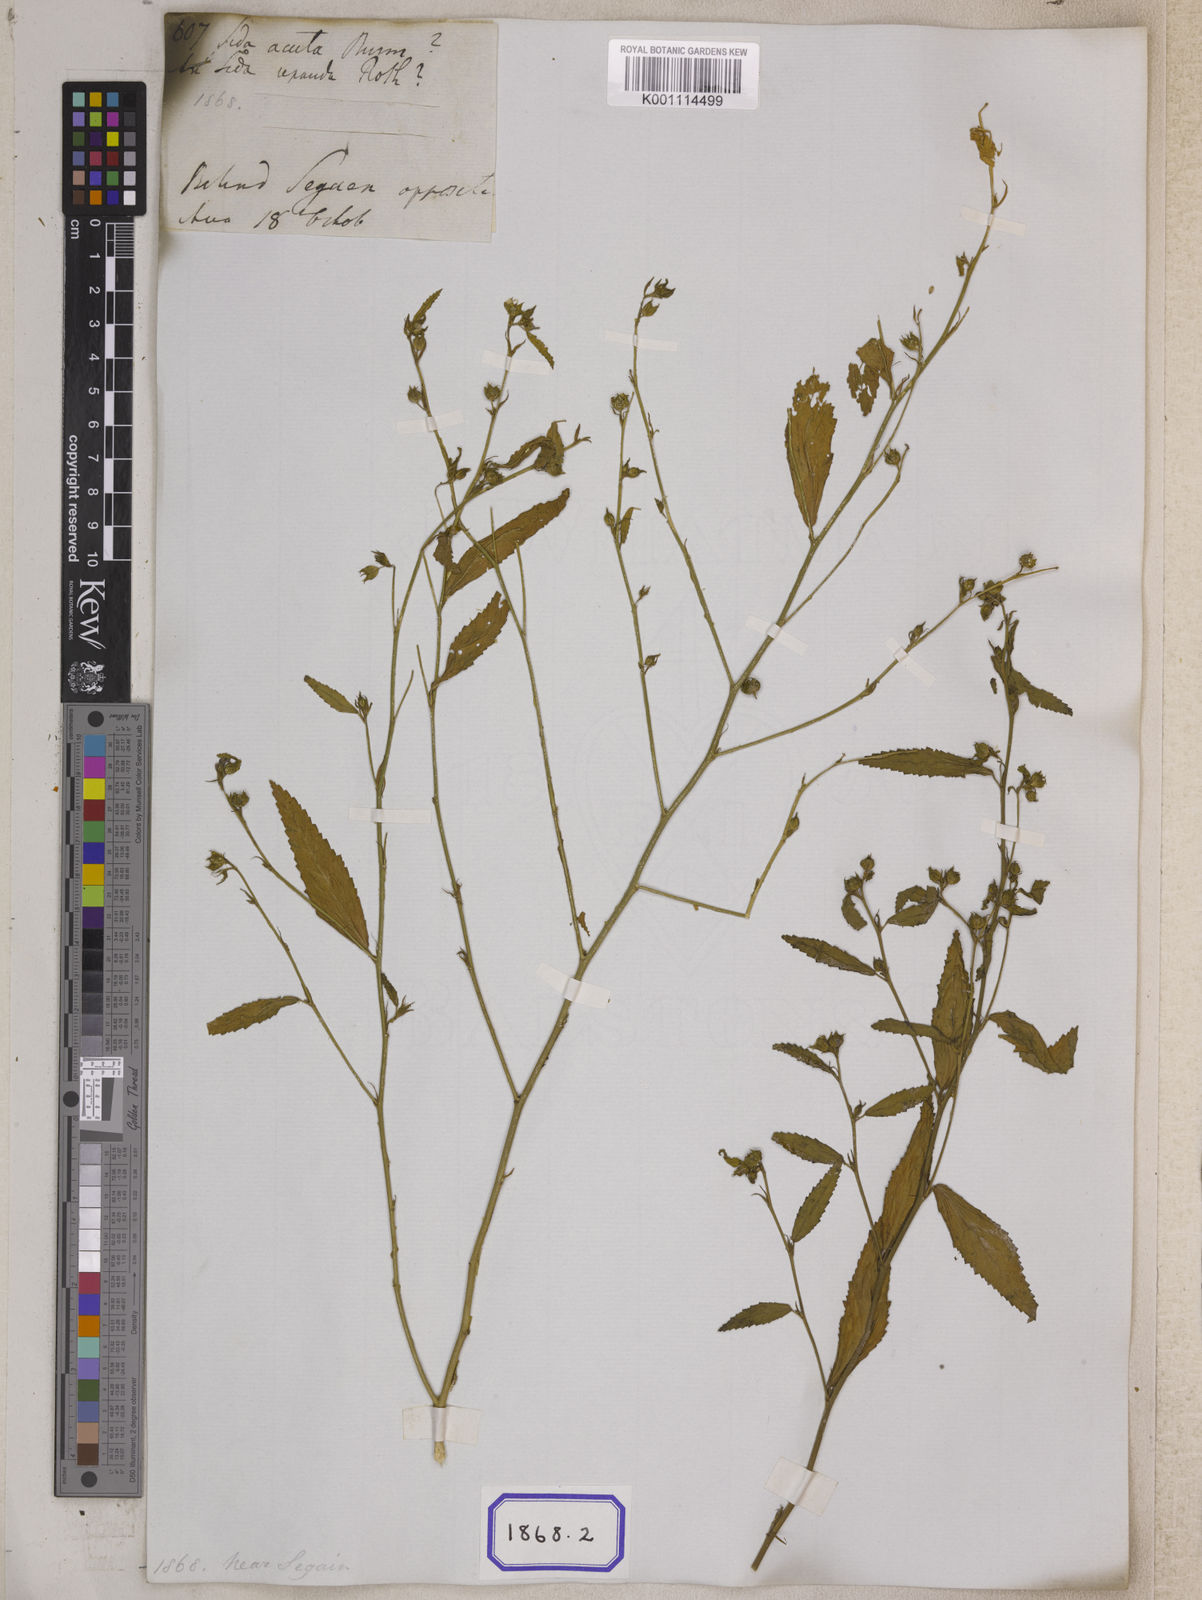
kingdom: Plantae
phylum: Tracheophyta
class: Magnoliopsida
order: Malvales
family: Malvaceae
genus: Sida
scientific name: Sida acuta
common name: Common wireweed
